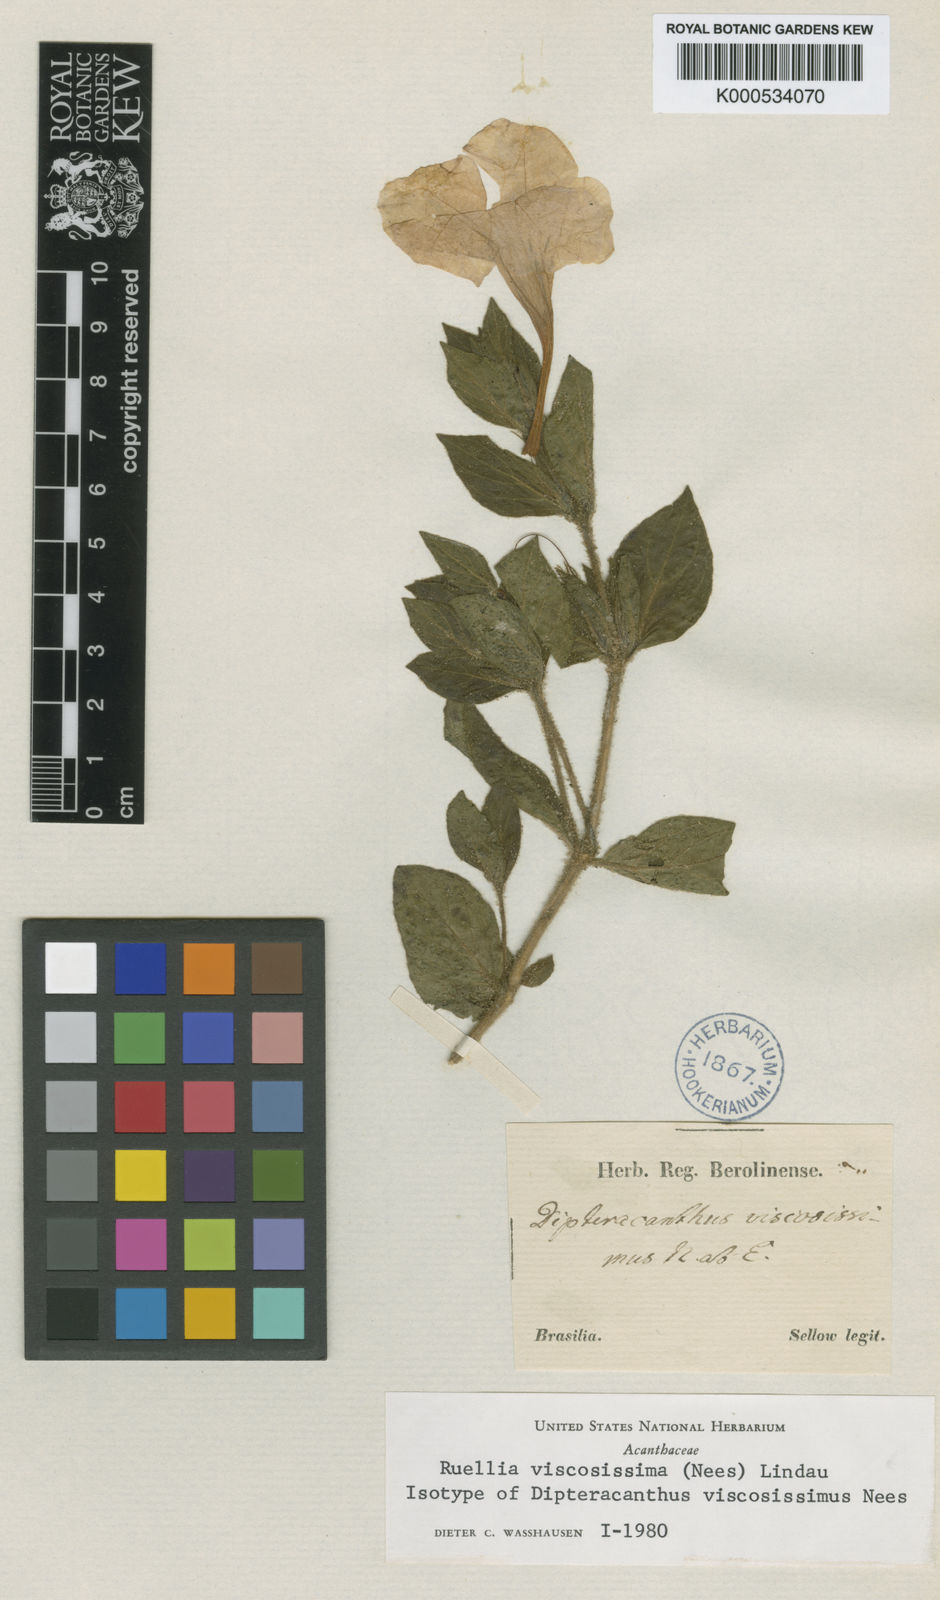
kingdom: Plantae
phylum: Tracheophyta
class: Magnoliopsida
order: Lamiales
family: Acanthaceae
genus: Ruellia
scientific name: Ruellia multifolia
